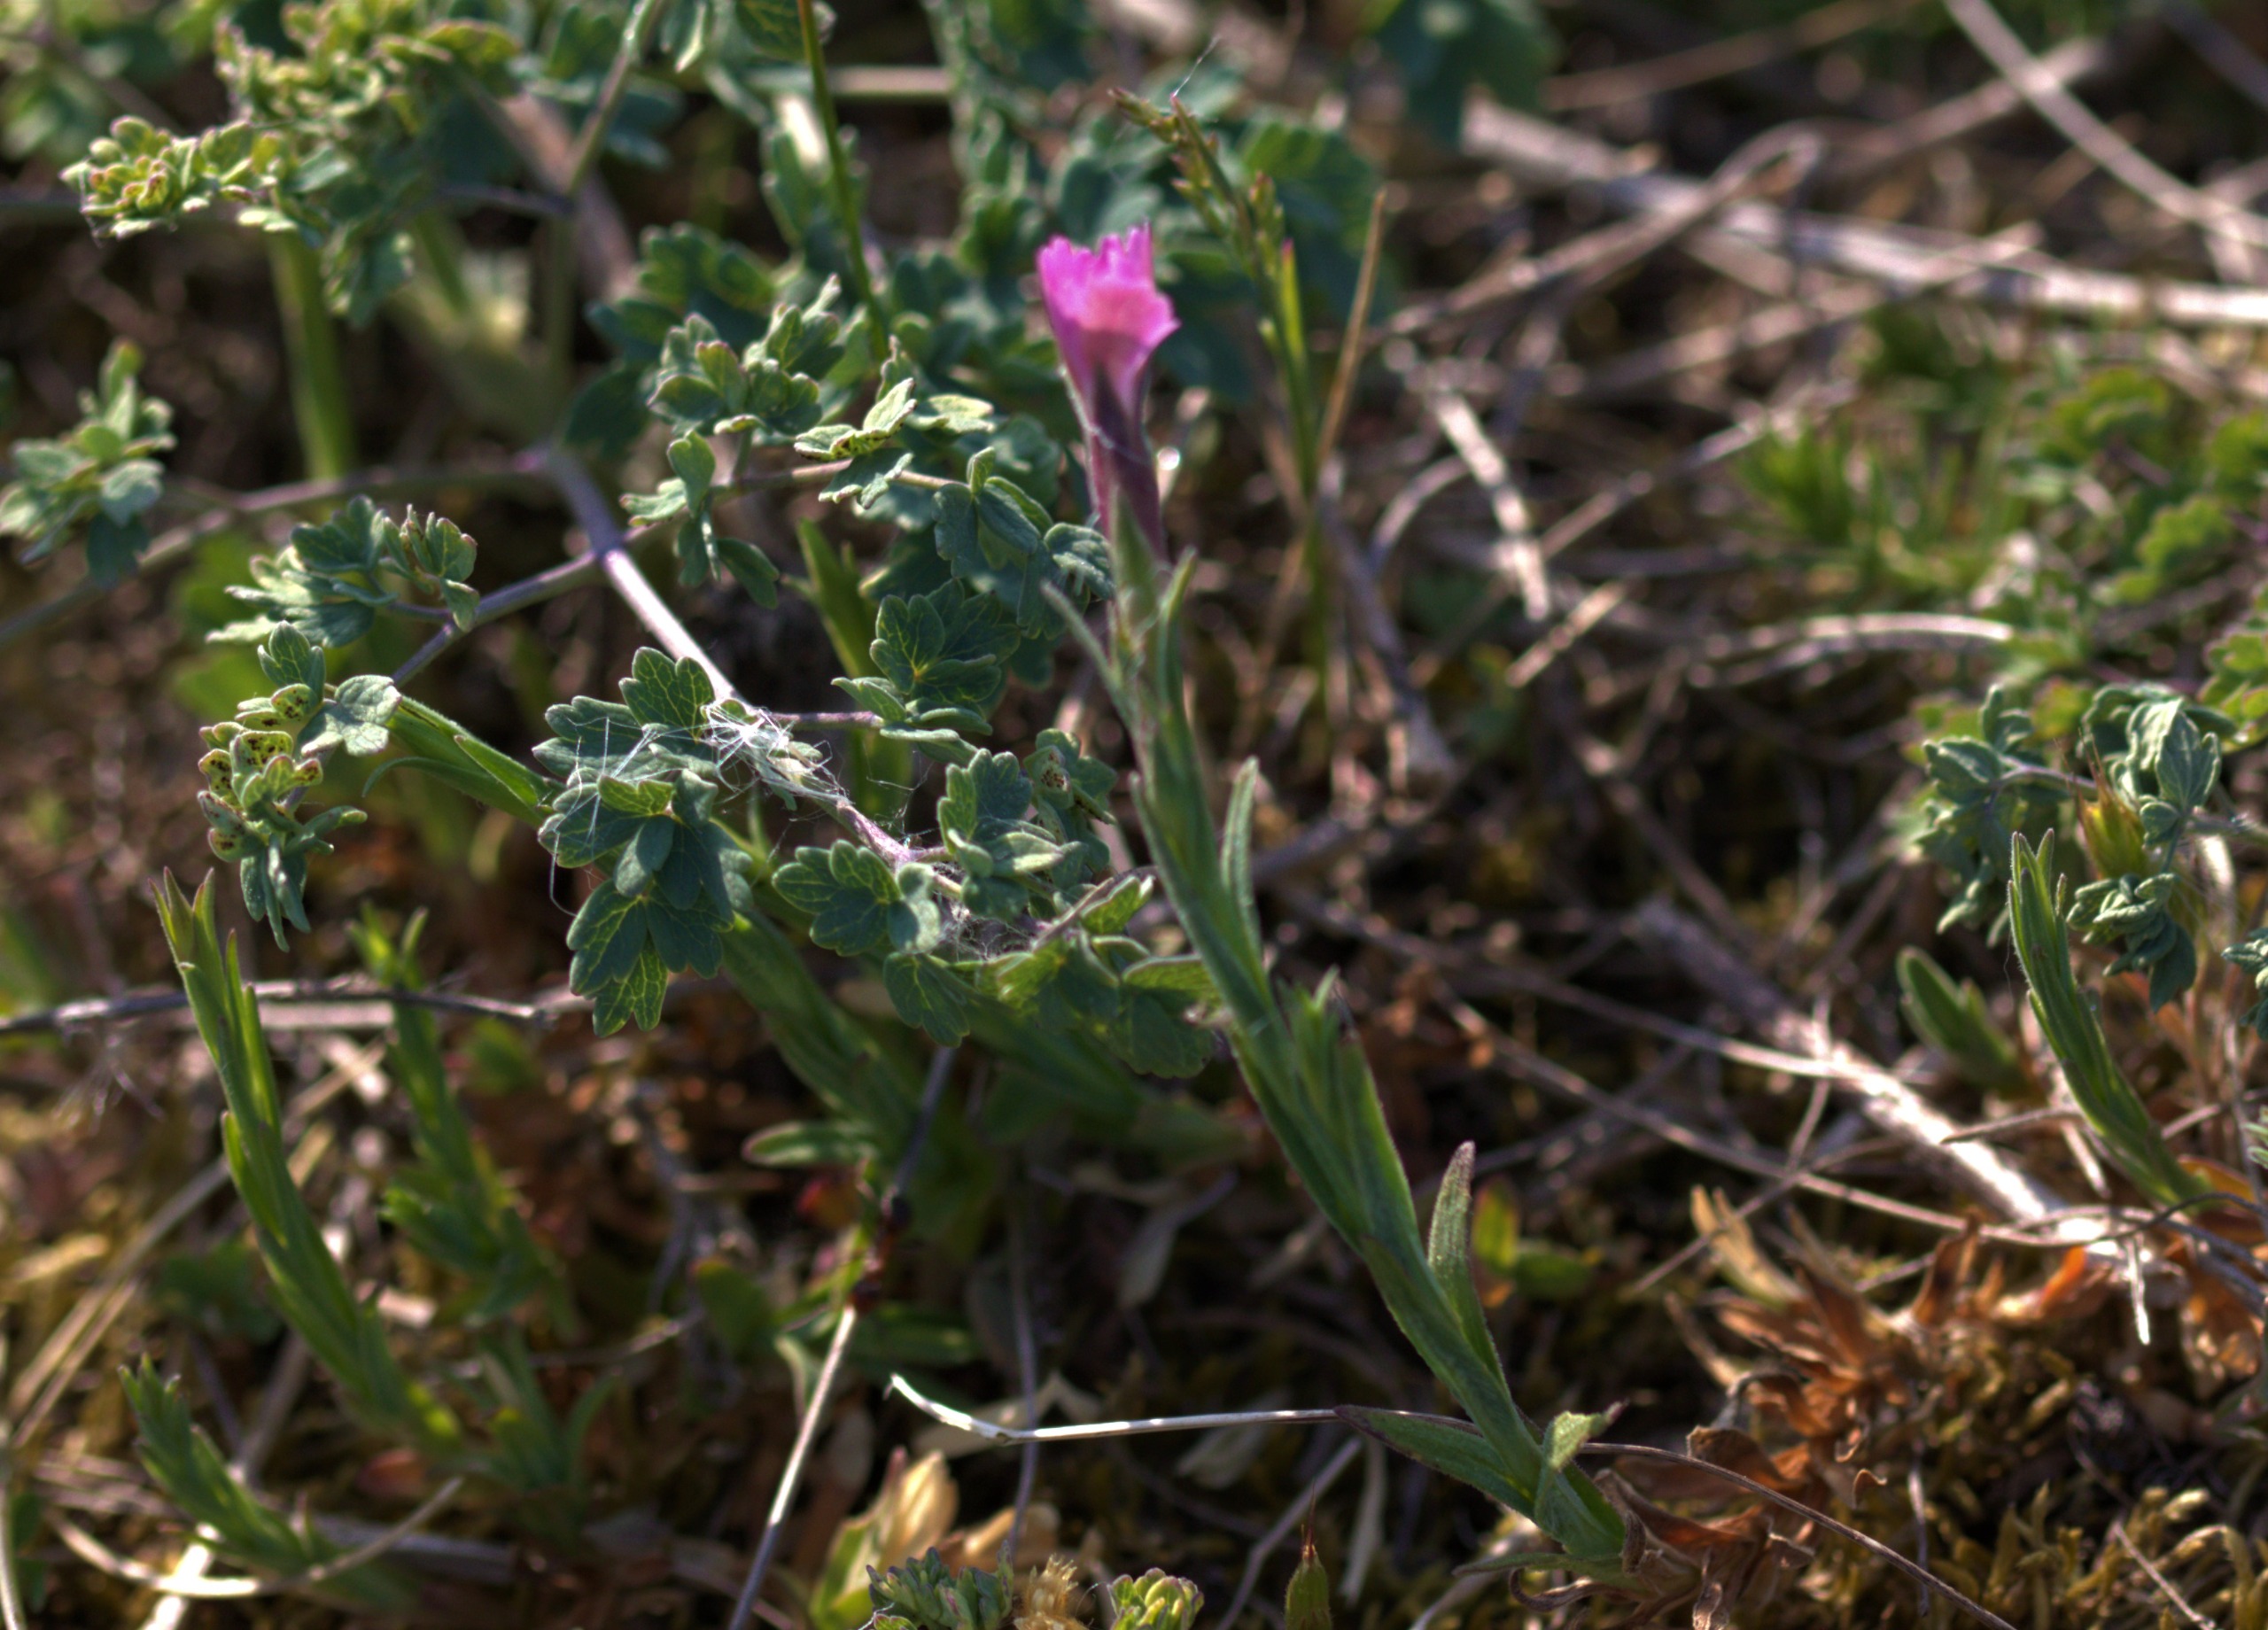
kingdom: Plantae
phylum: Tracheophyta
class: Magnoliopsida
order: Caryophyllales
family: Caryophyllaceae
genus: Dianthus
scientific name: Dianthus deltoides
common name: Bakke-nellike
